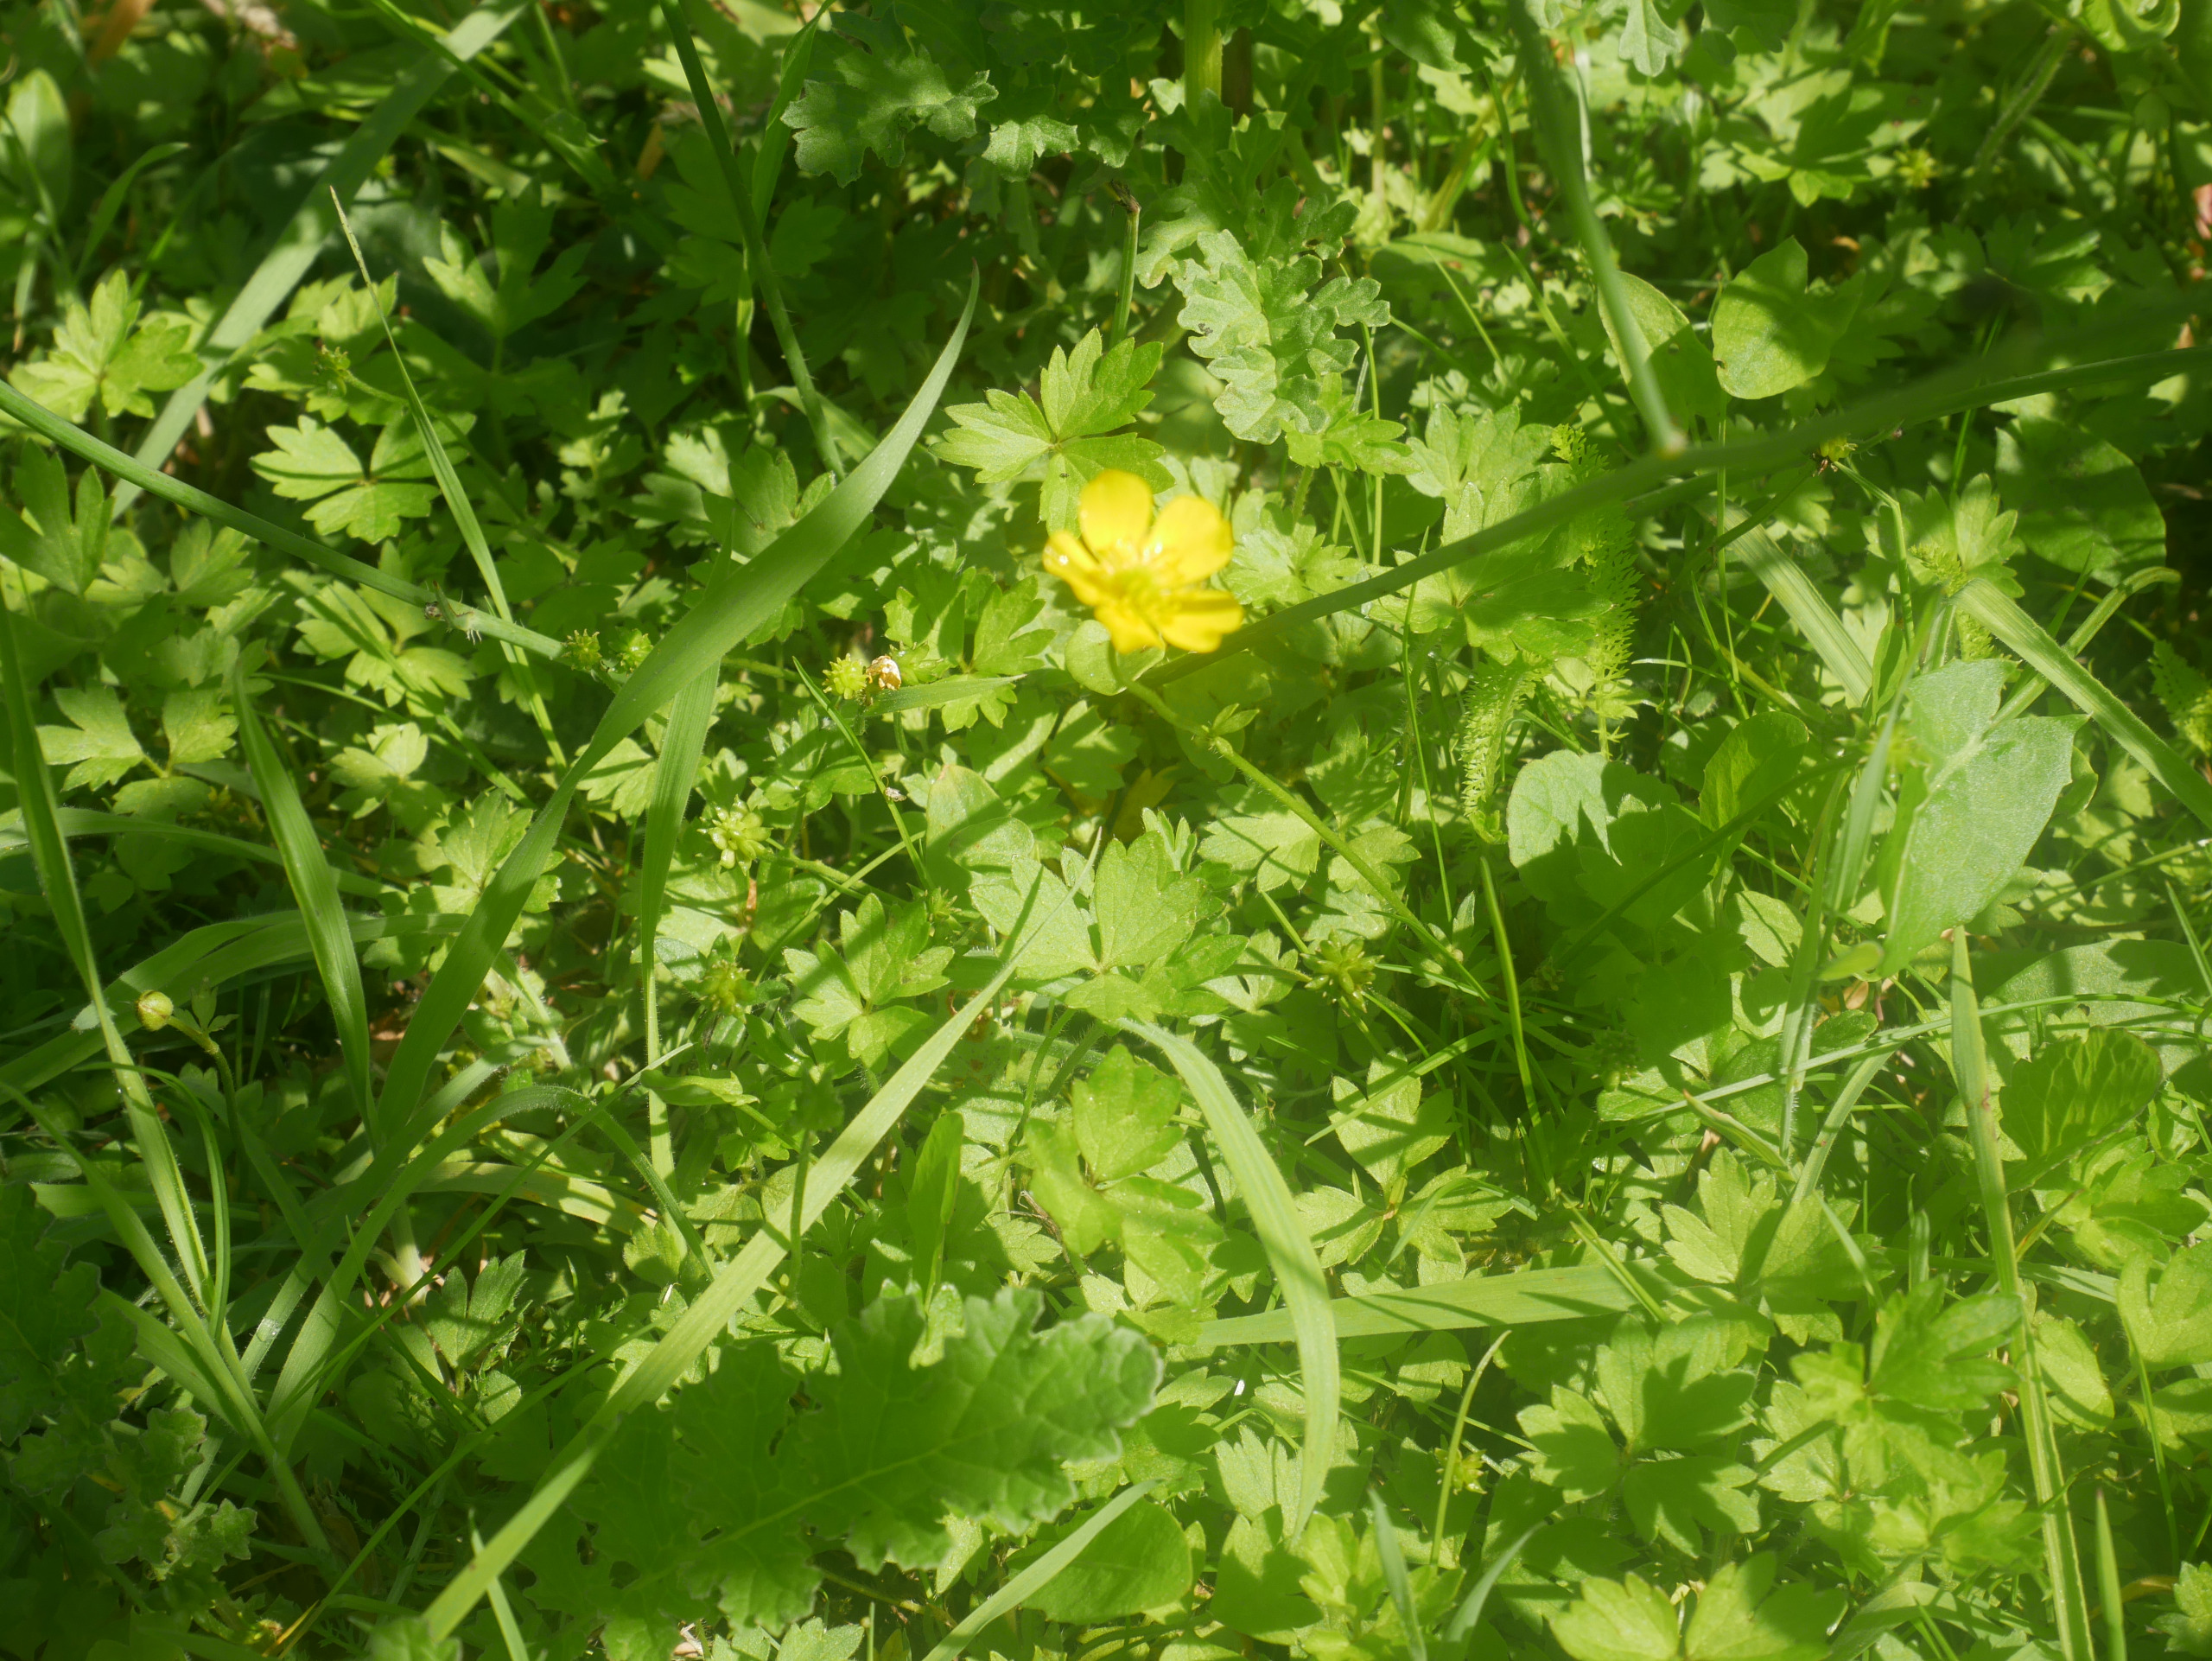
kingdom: Plantae
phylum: Tracheophyta
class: Magnoliopsida
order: Ranunculales
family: Ranunculaceae
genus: Ranunculus
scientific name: Ranunculus repens
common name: Lav ranunkel
